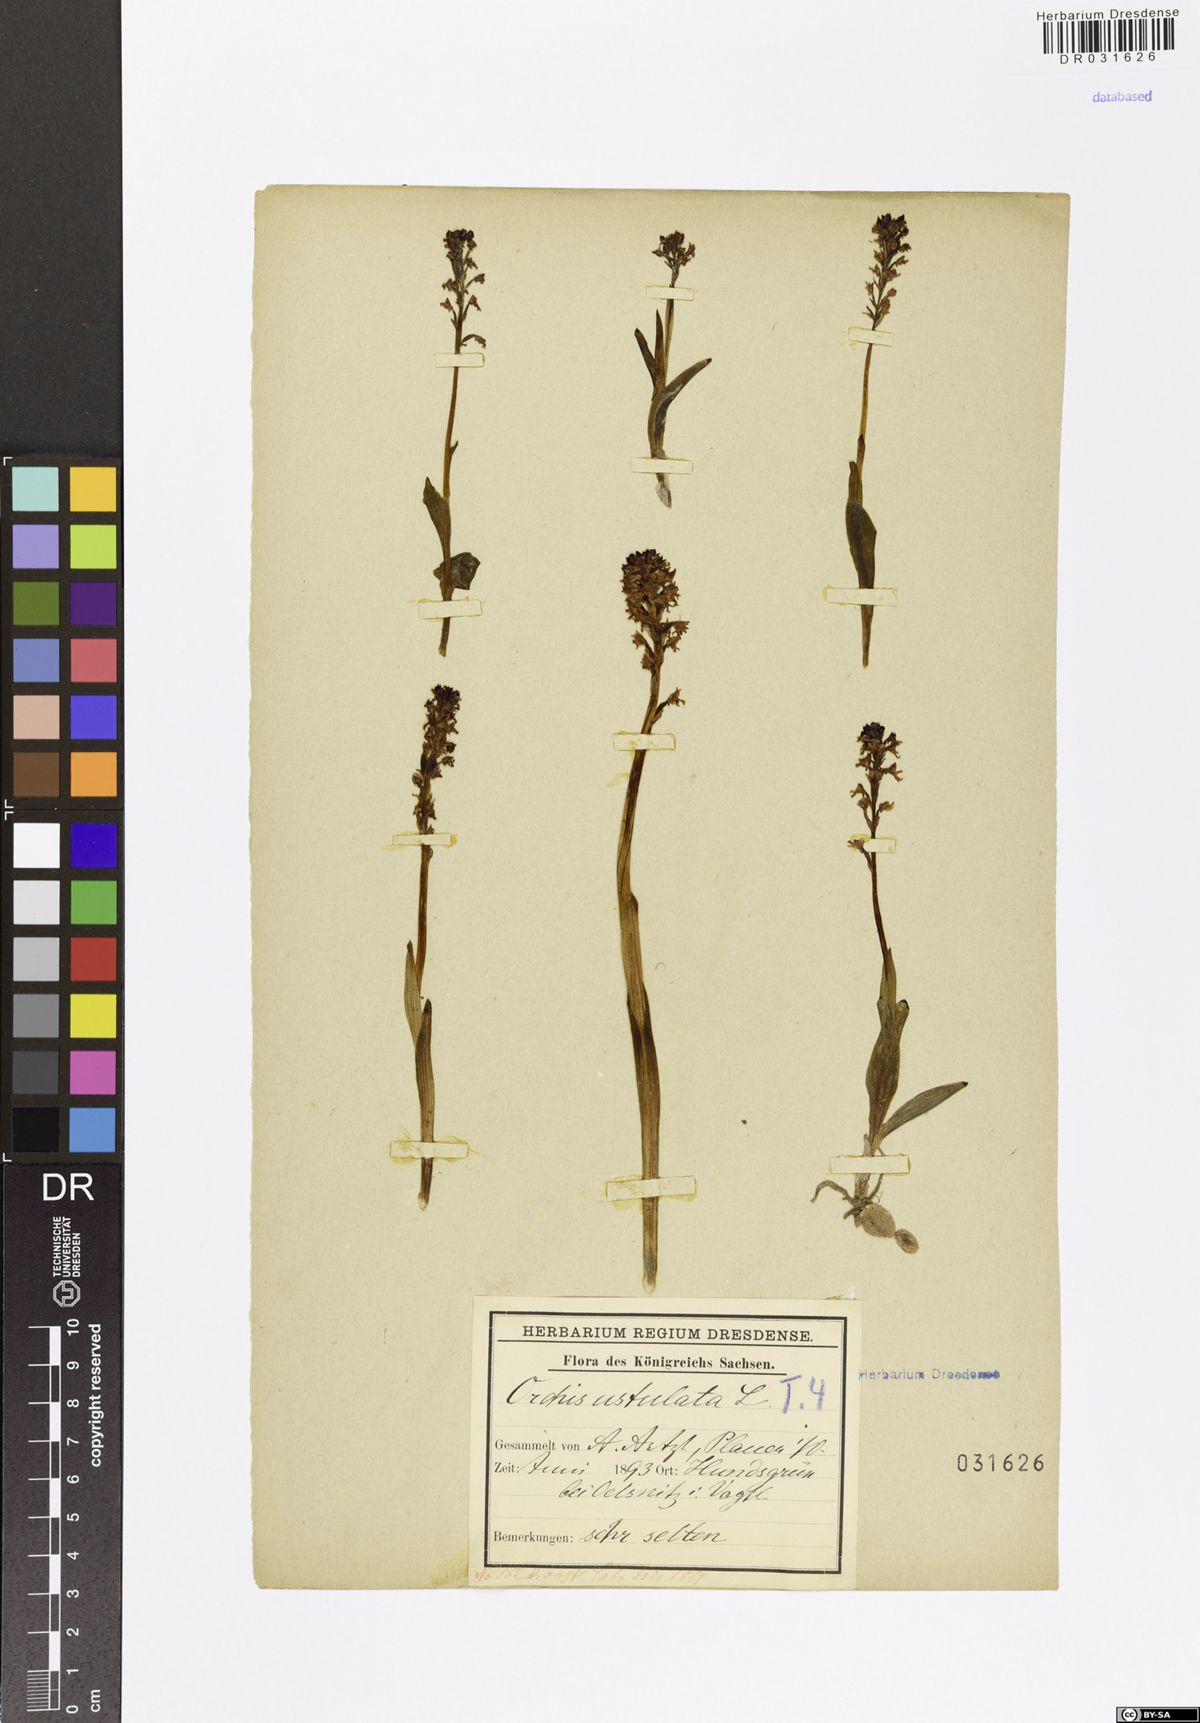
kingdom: Plantae
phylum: Tracheophyta
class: Liliopsida
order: Asparagales
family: Orchidaceae
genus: Neotinea
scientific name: Neotinea ustulata
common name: Burnt orchid
